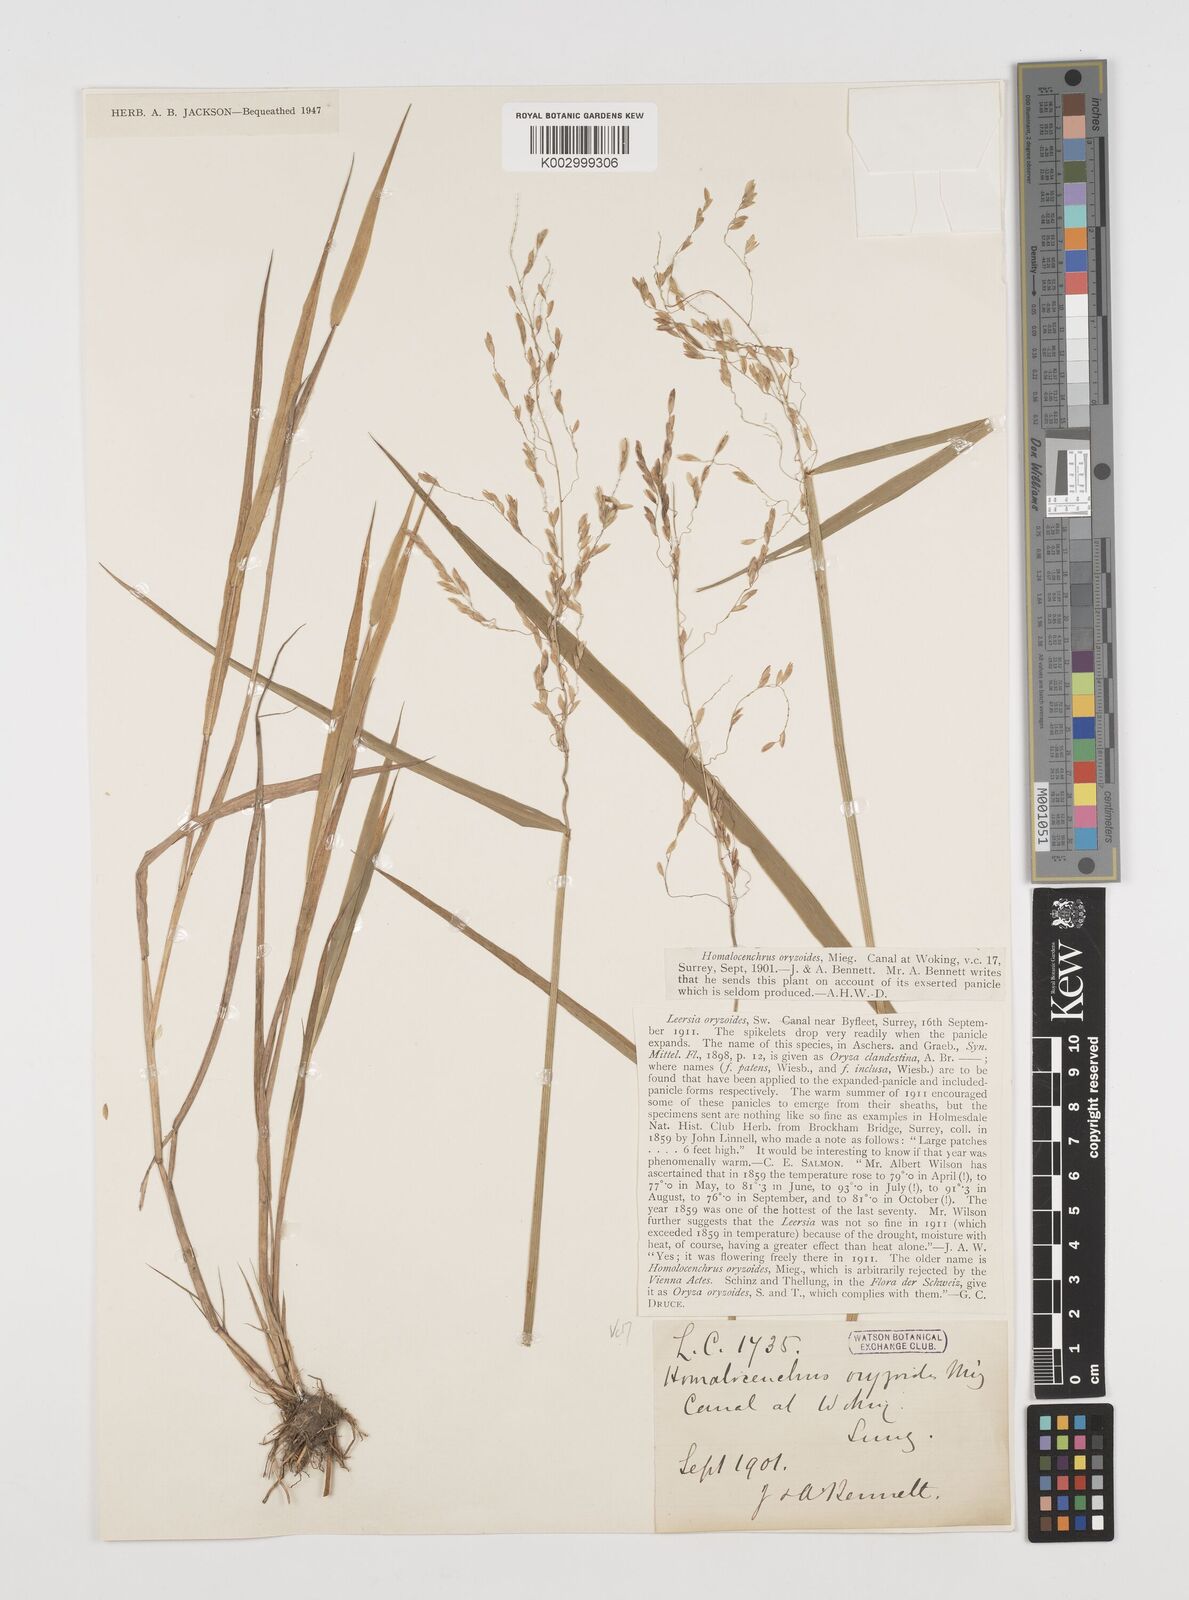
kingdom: Plantae
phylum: Tracheophyta
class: Liliopsida
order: Poales
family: Poaceae
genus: Leersia
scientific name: Leersia oryzoides
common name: Cut-grass
